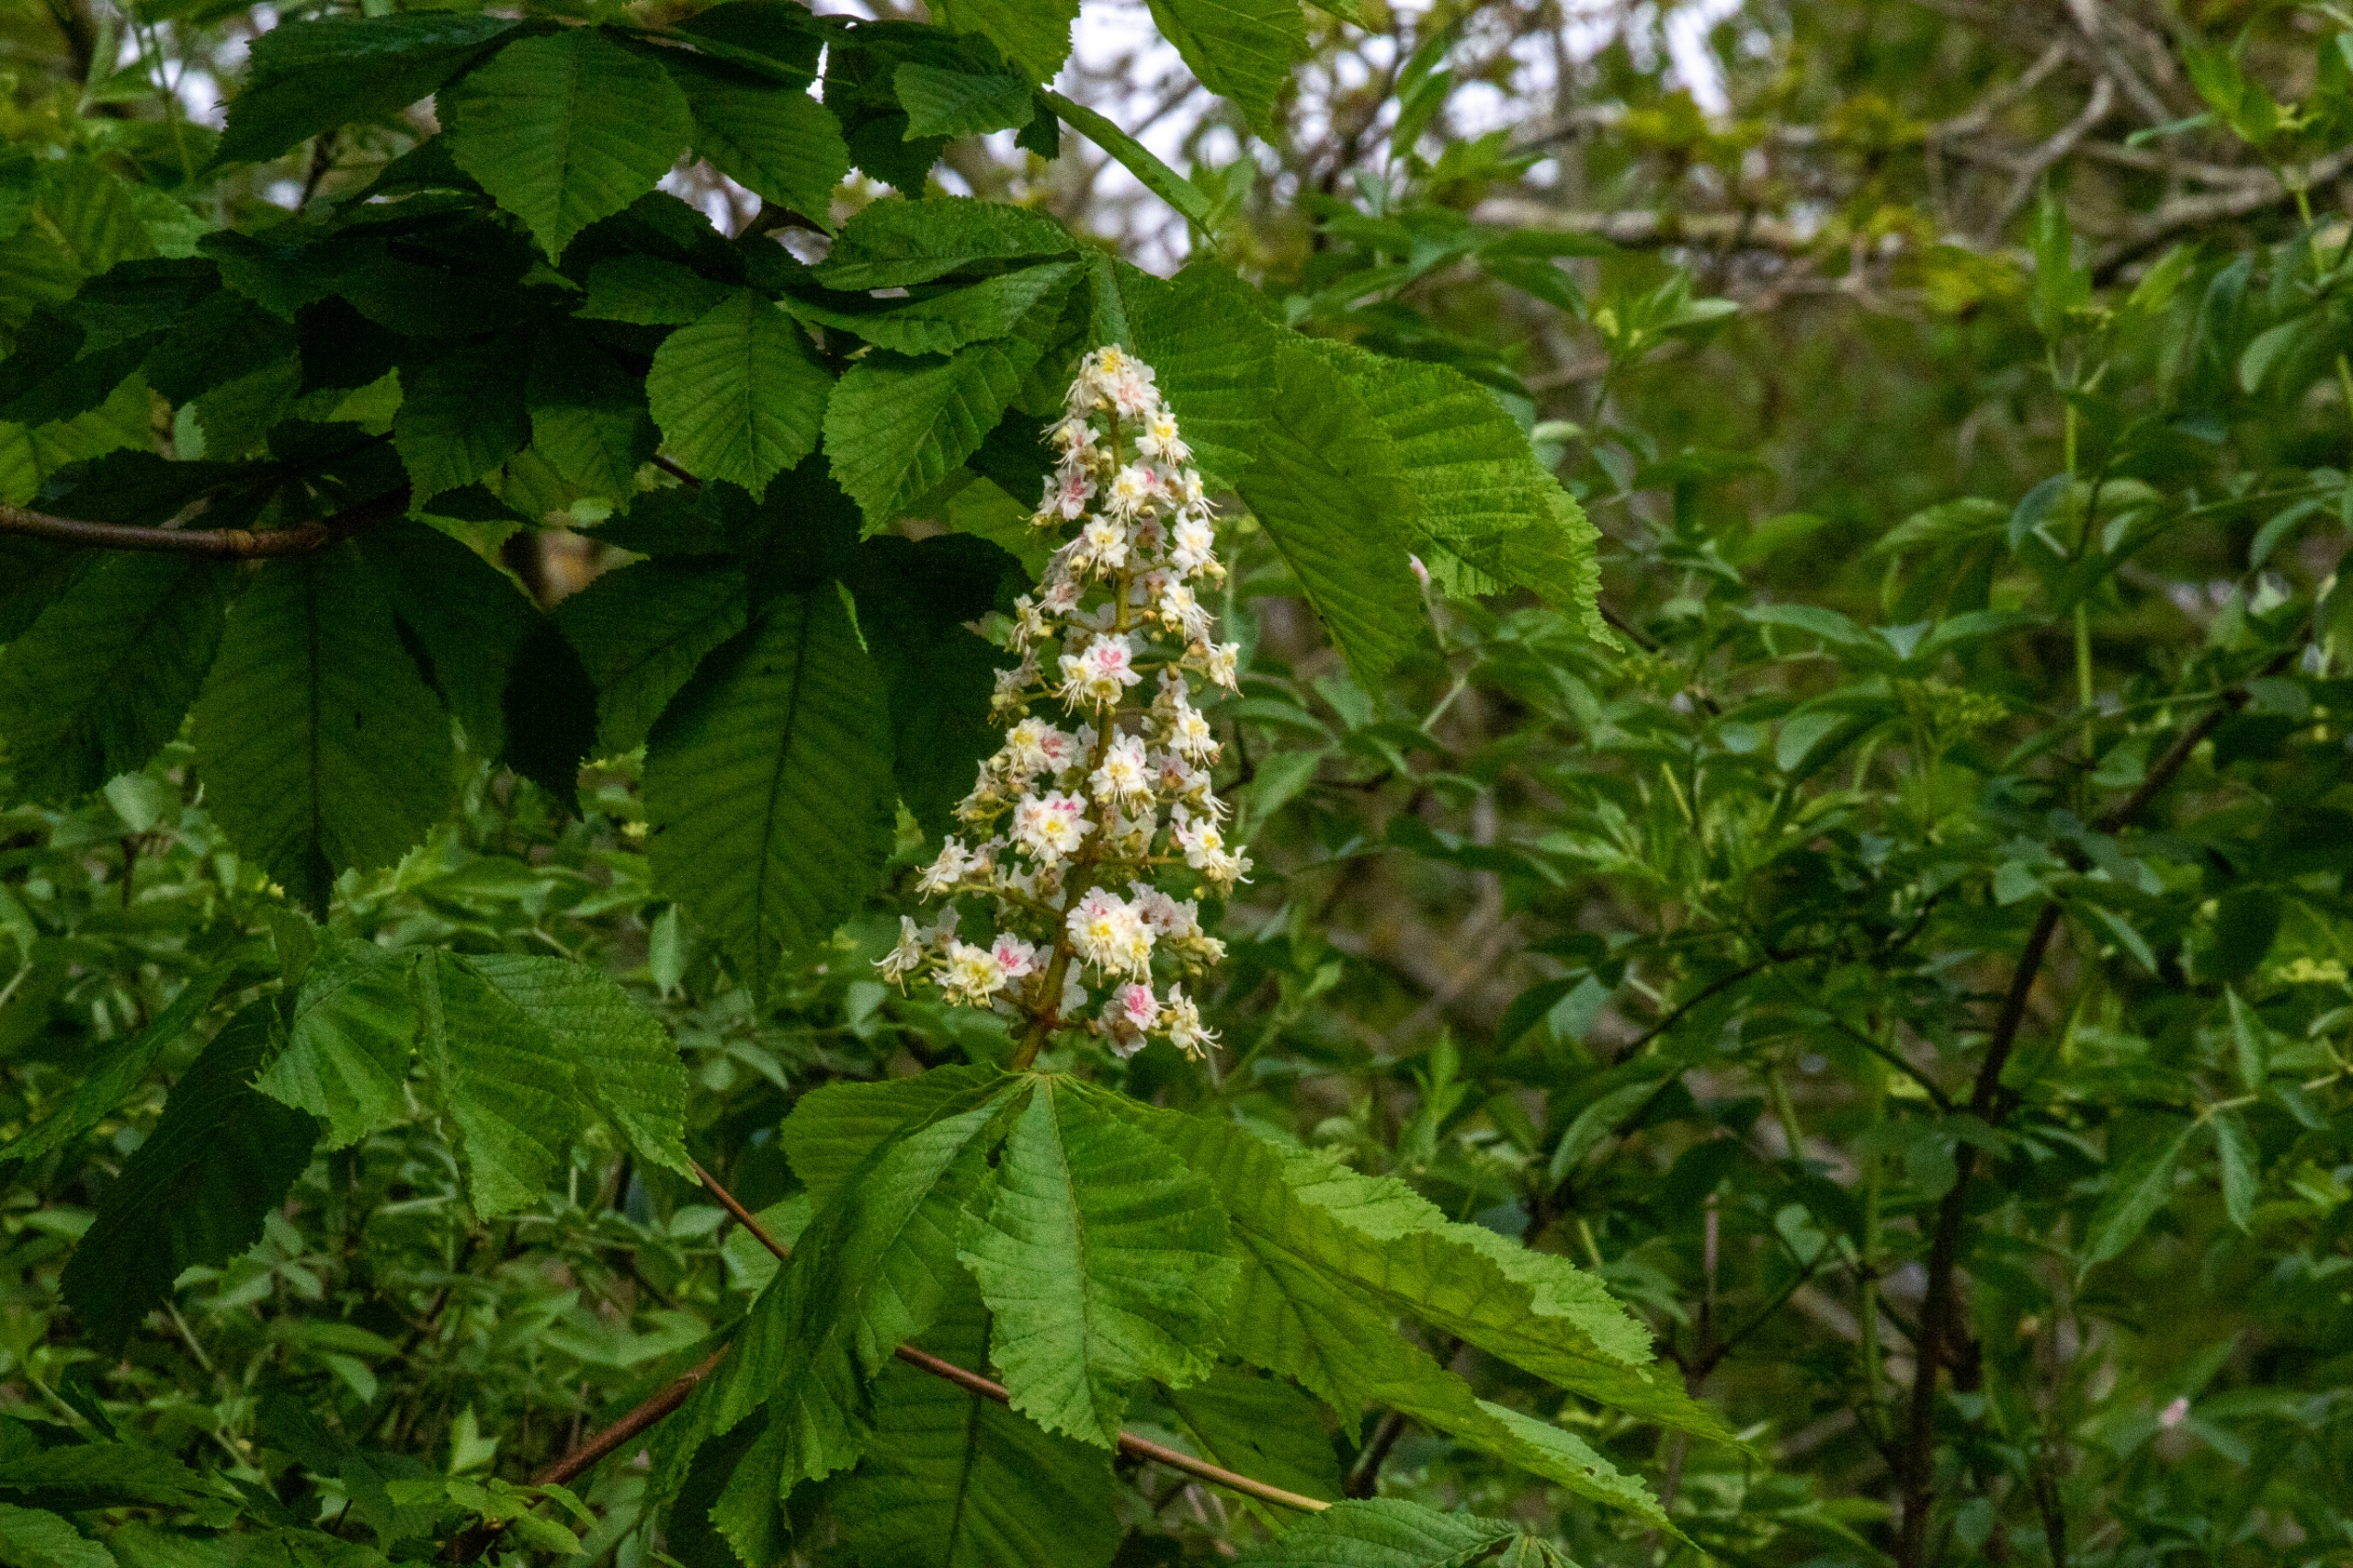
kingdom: Plantae
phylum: Tracheophyta
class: Magnoliopsida
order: Sapindales
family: Sapindaceae
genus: Aesculus
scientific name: Aesculus hippocastanum
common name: Hestekastanie
